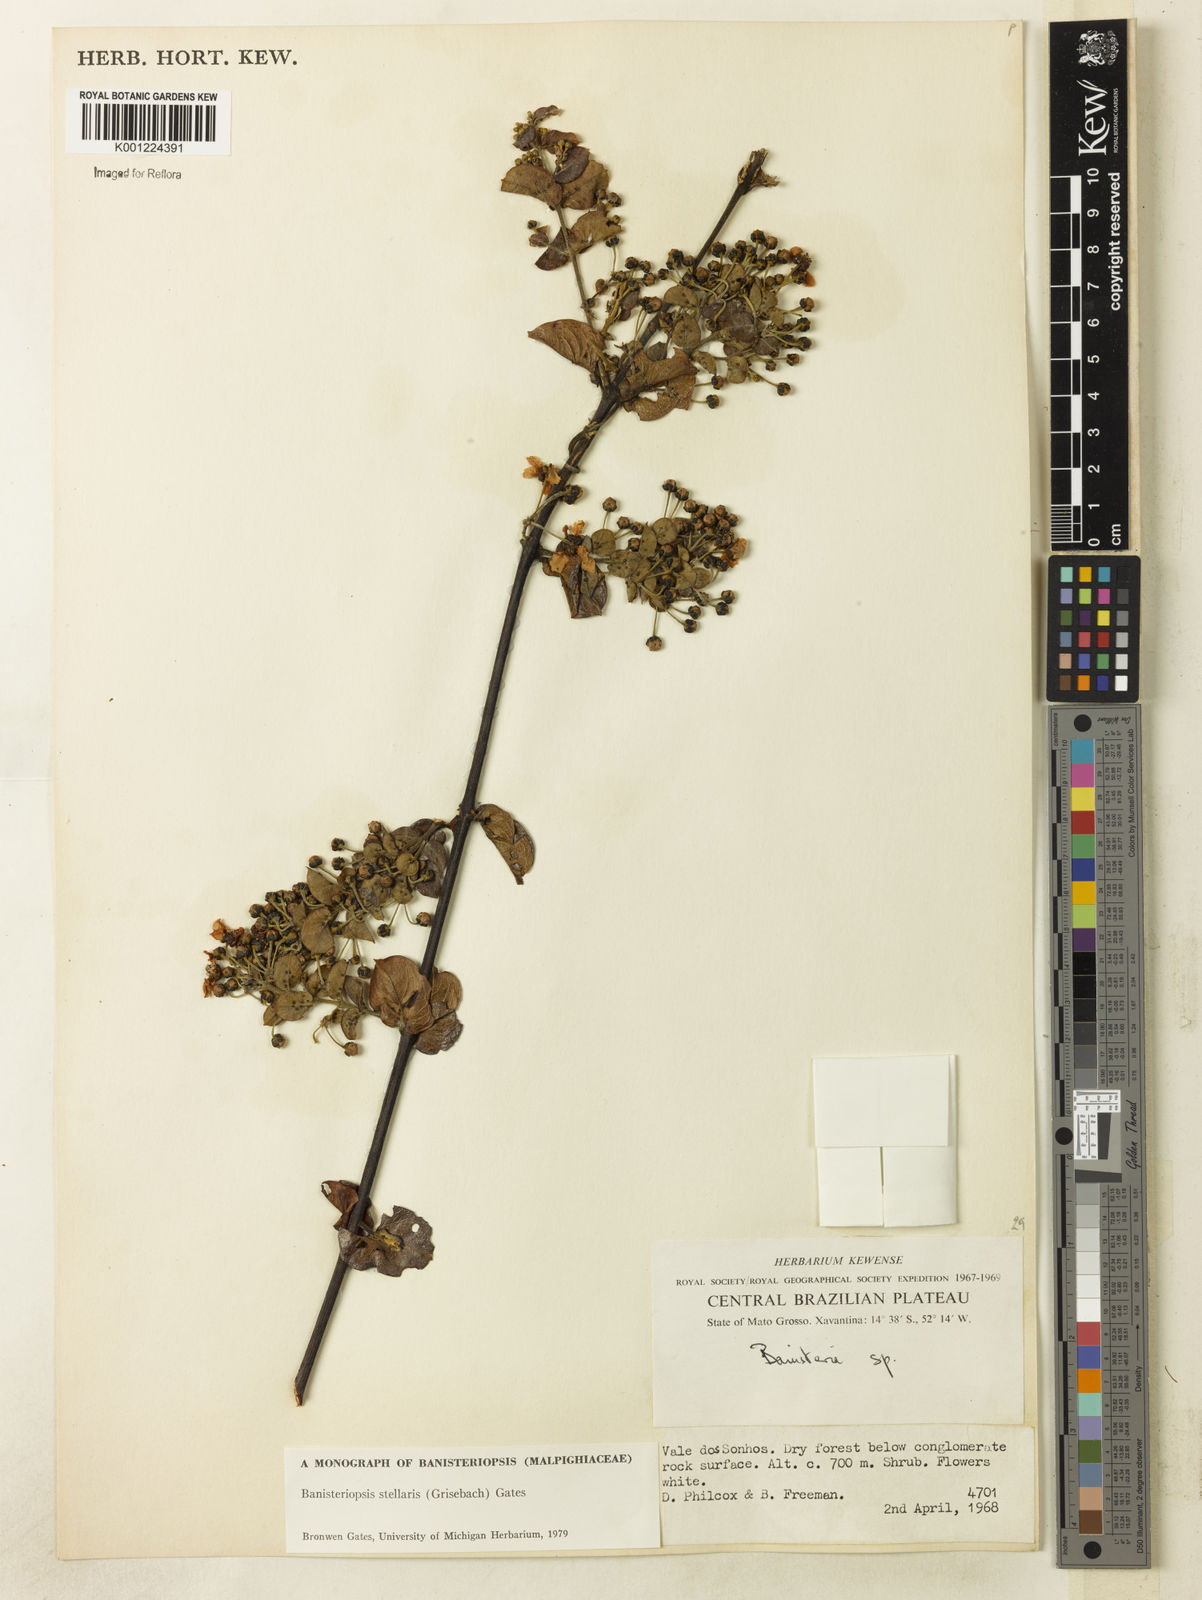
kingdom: Plantae
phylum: Tracheophyta
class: Magnoliopsida
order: Malpighiales
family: Malpighiaceae
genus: Banisteriopsis
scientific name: Banisteriopsis stellaris
